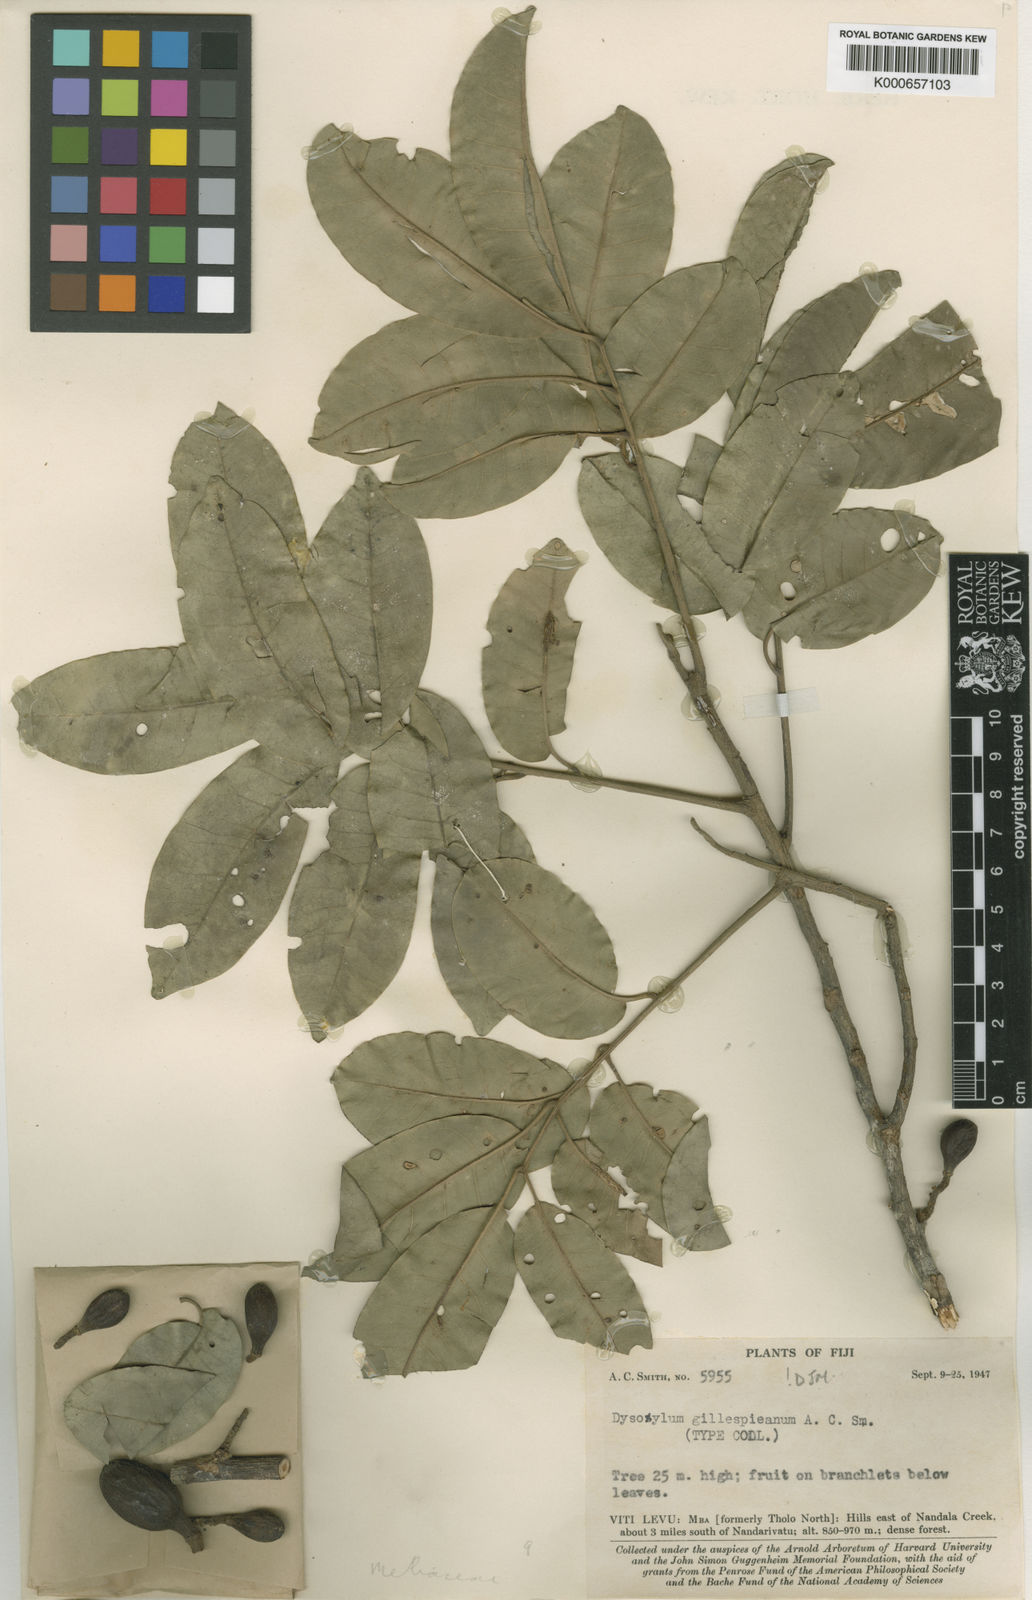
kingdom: Plantae
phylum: Tracheophyta
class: Magnoliopsida
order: Sapindales
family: Meliaceae
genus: Epicharis
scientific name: Epicharis gillespieana
